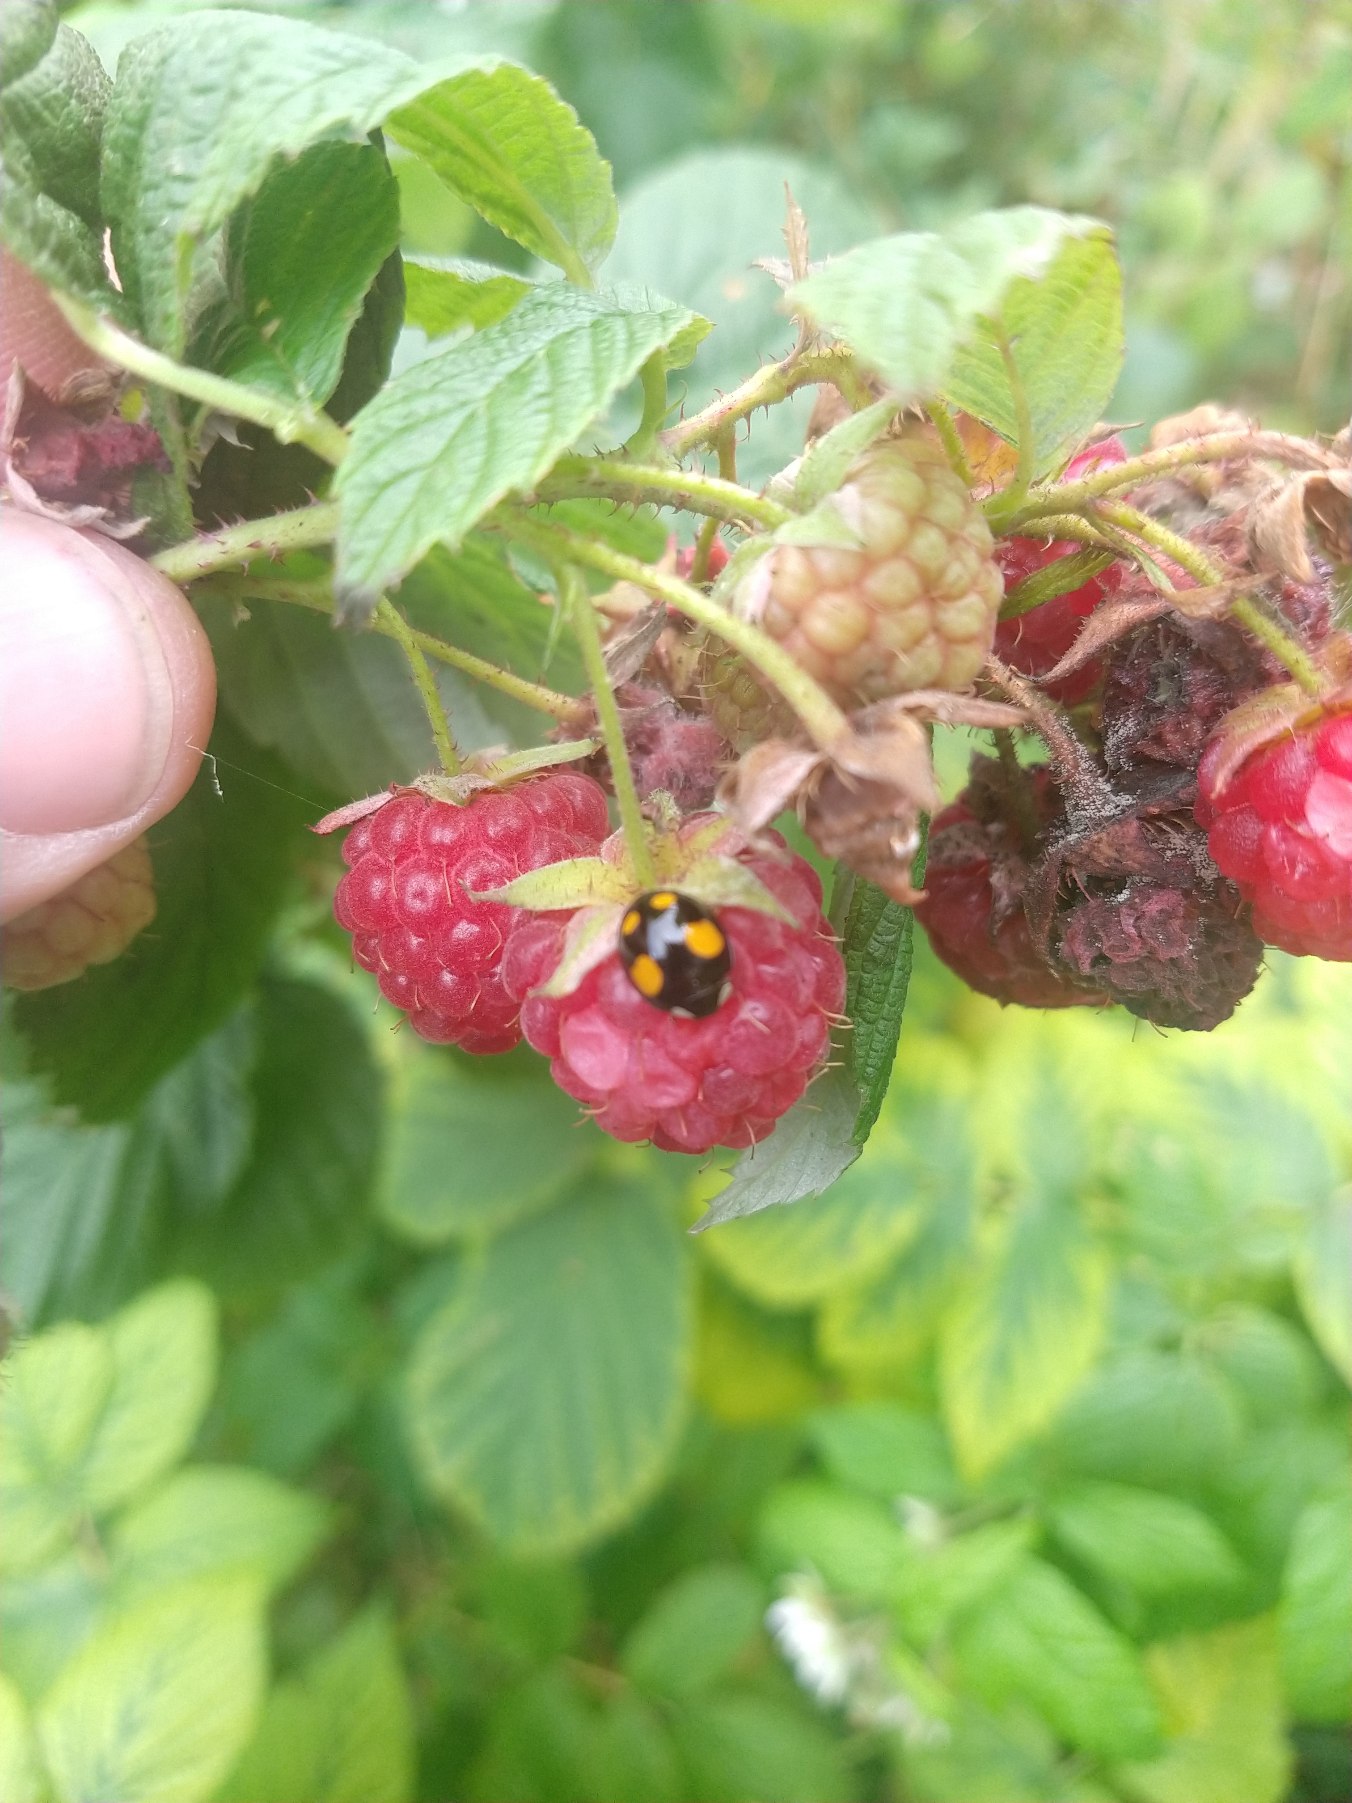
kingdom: Animalia
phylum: Arthropoda
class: Insecta
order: Coleoptera
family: Coccinellidae
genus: Harmonia
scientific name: Harmonia axyridis
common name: Harlekinmariehøne
